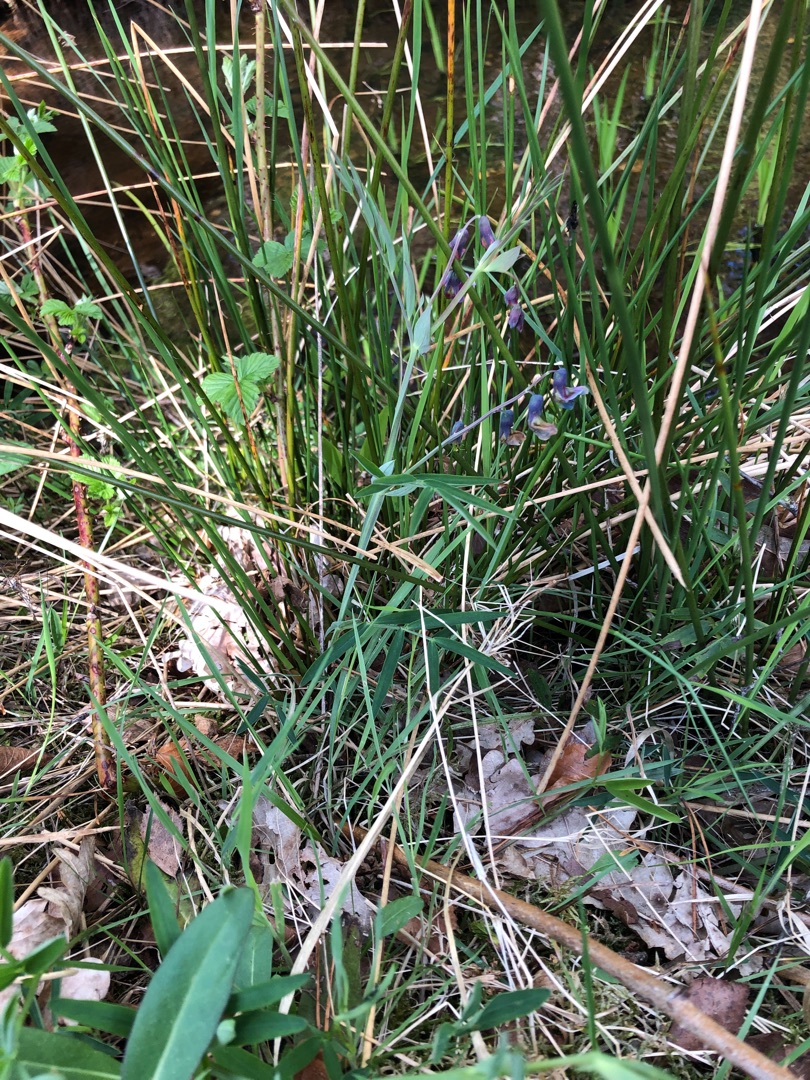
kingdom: Plantae
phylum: Tracheophyta
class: Magnoliopsida
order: Fabales
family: Fabaceae
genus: Lathyrus
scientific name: Lathyrus linifolius
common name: Krat-fladbælg
